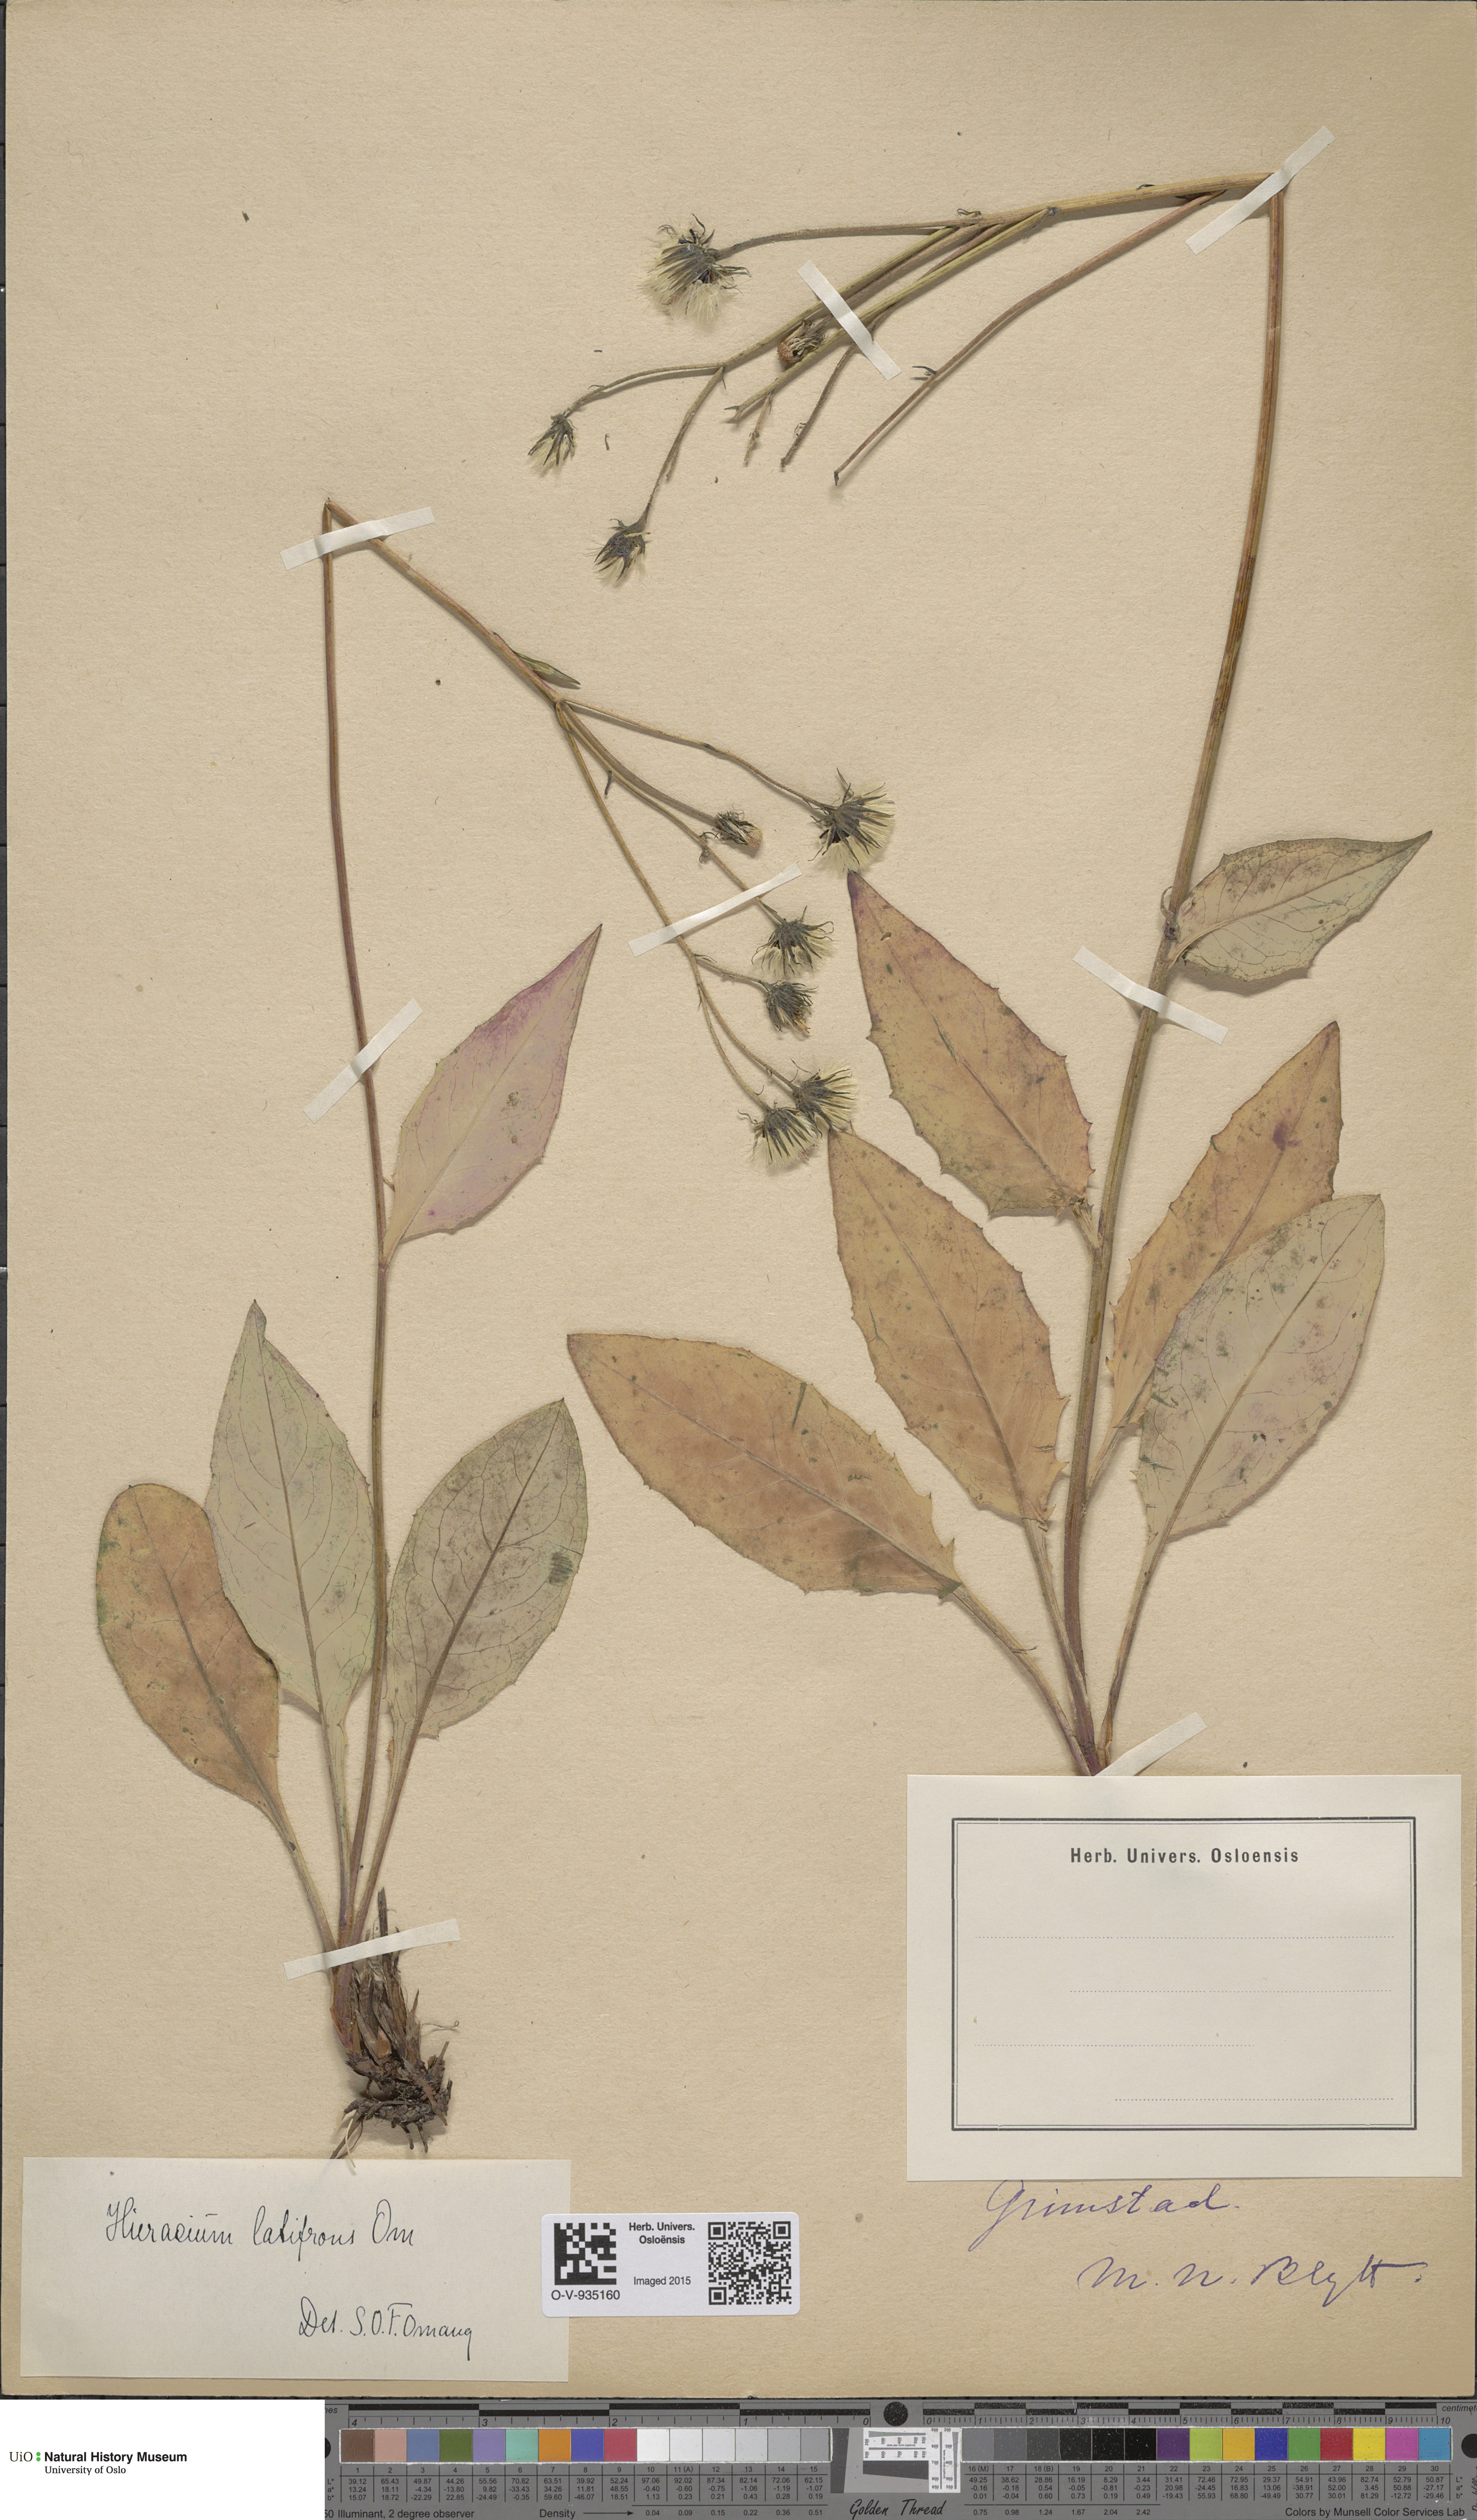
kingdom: Plantae
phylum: Tracheophyta
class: Magnoliopsida
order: Asterales
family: Asteraceae
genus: Hieracium
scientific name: Hieracium saxifragum
